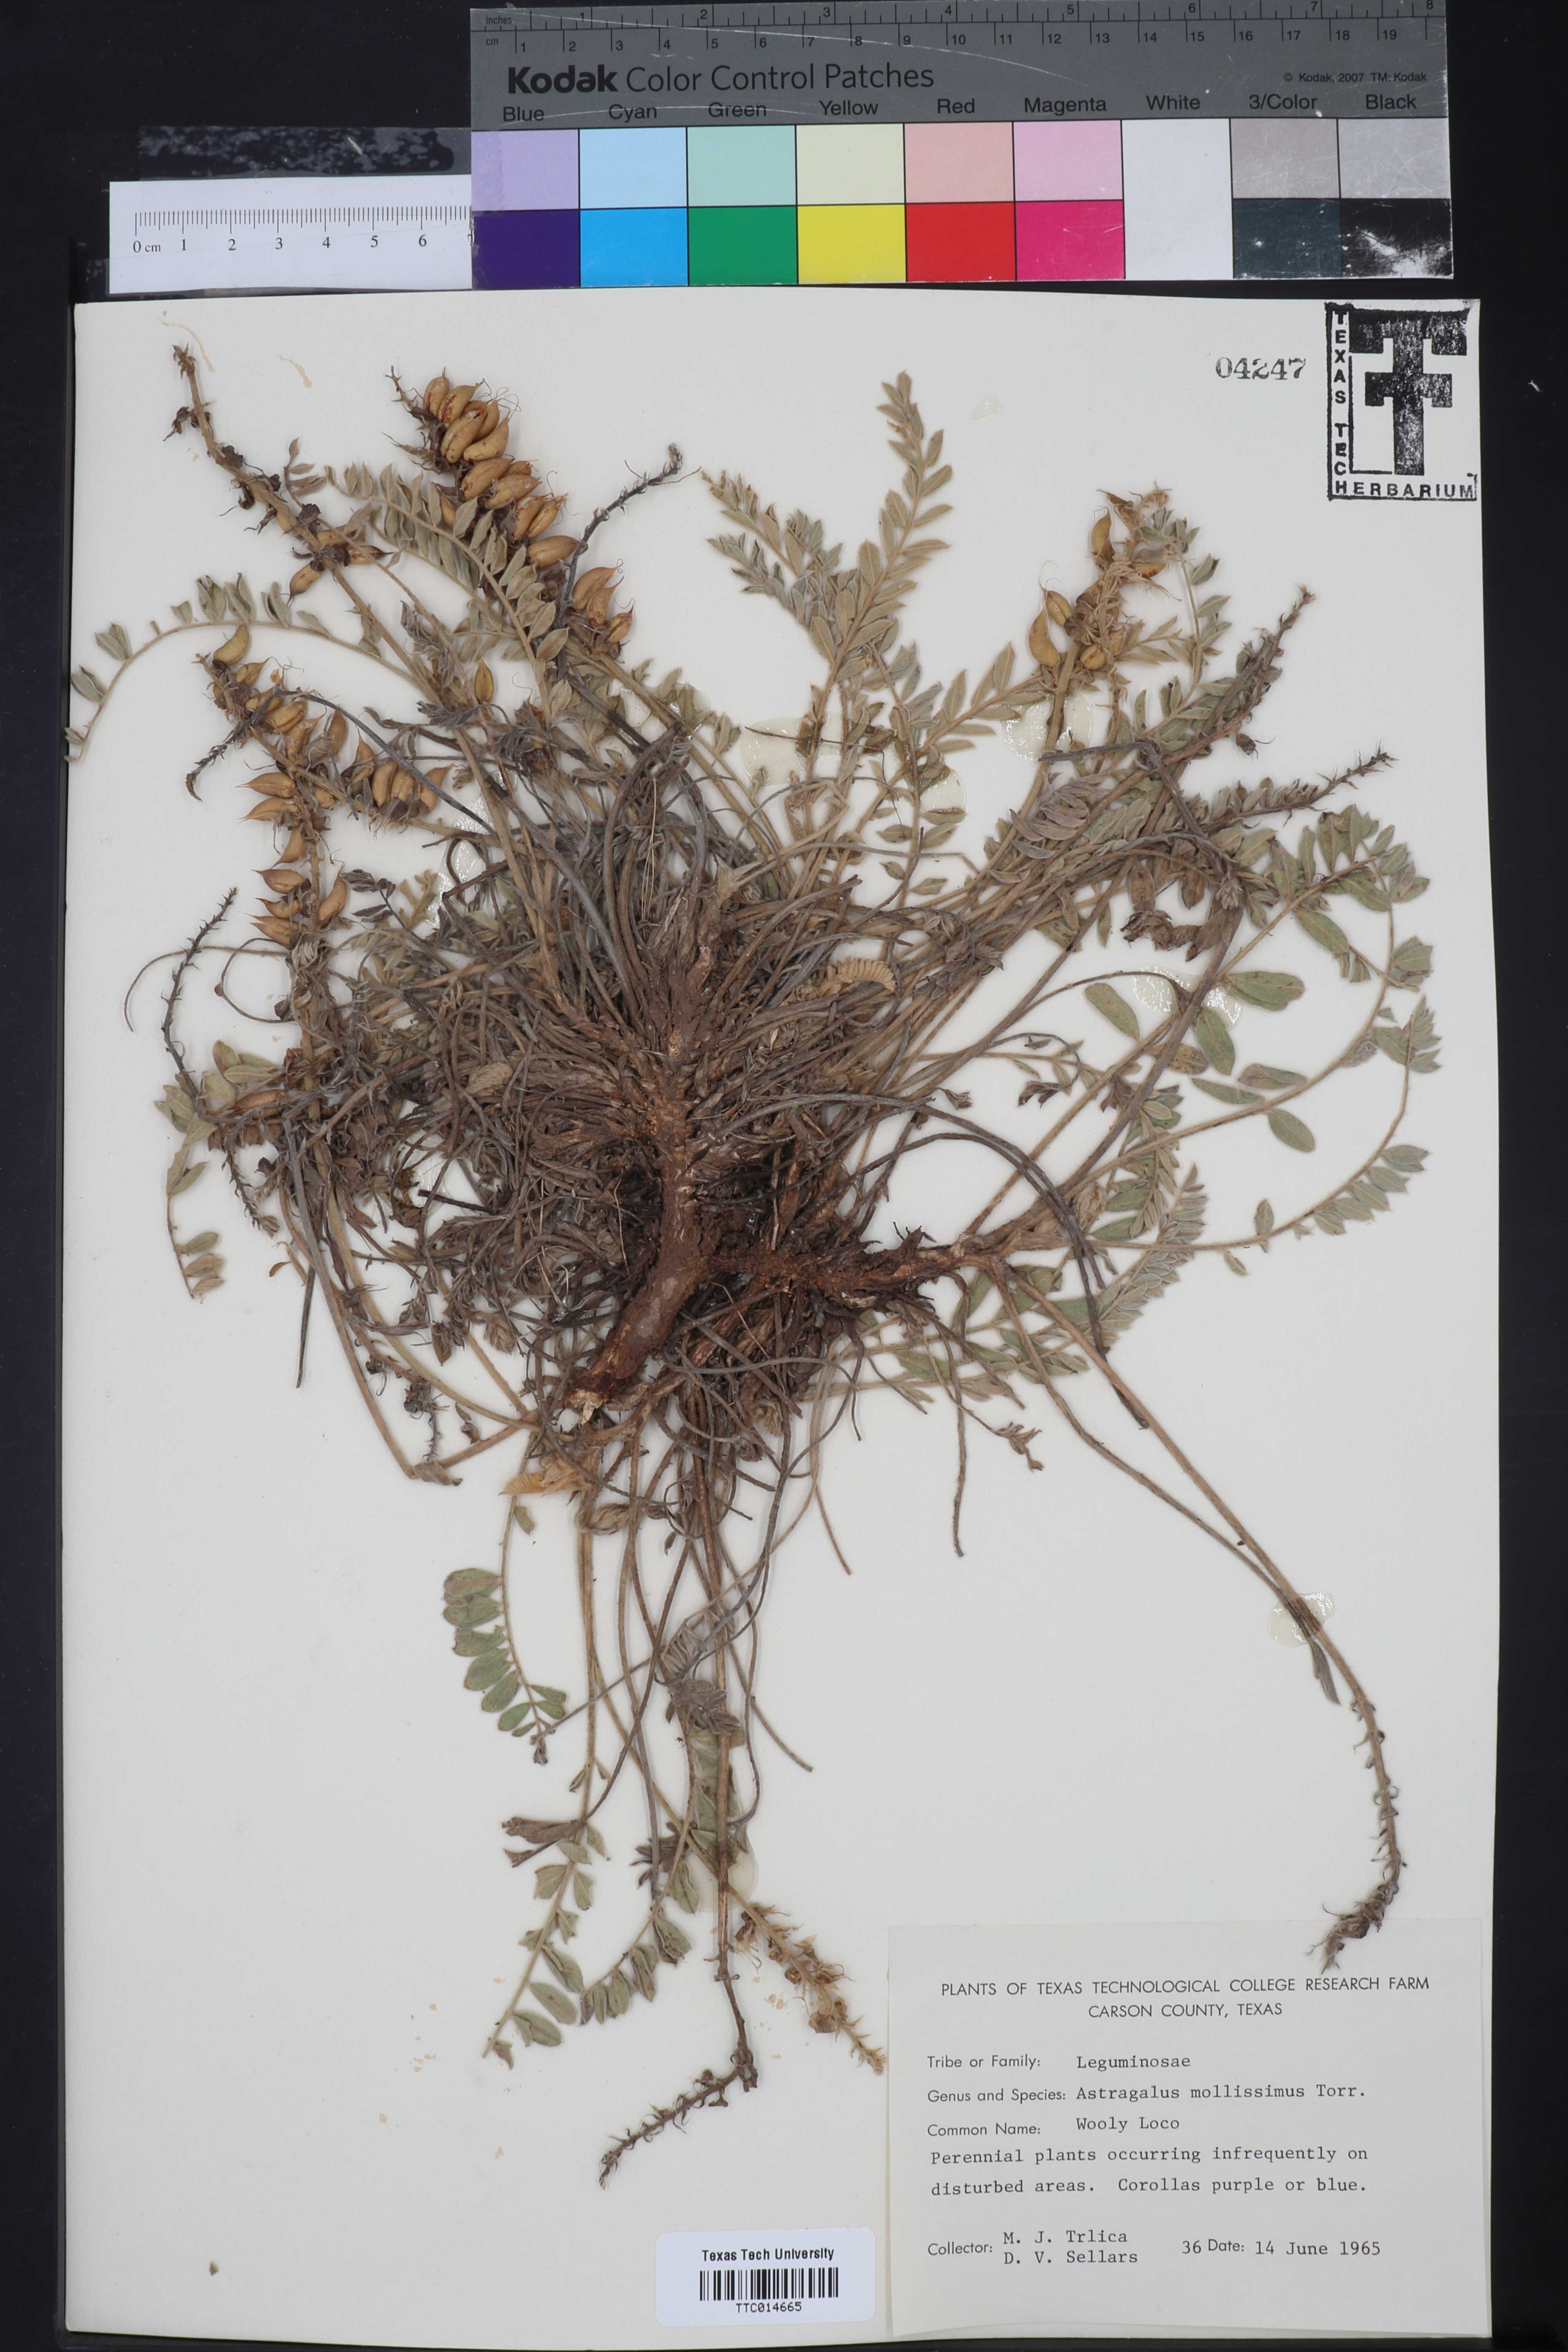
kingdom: Plantae
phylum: Tracheophyta
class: Magnoliopsida
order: Fabales
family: Fabaceae
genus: Astragalus
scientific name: Astragalus mollissimus
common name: Woolly locoweed
